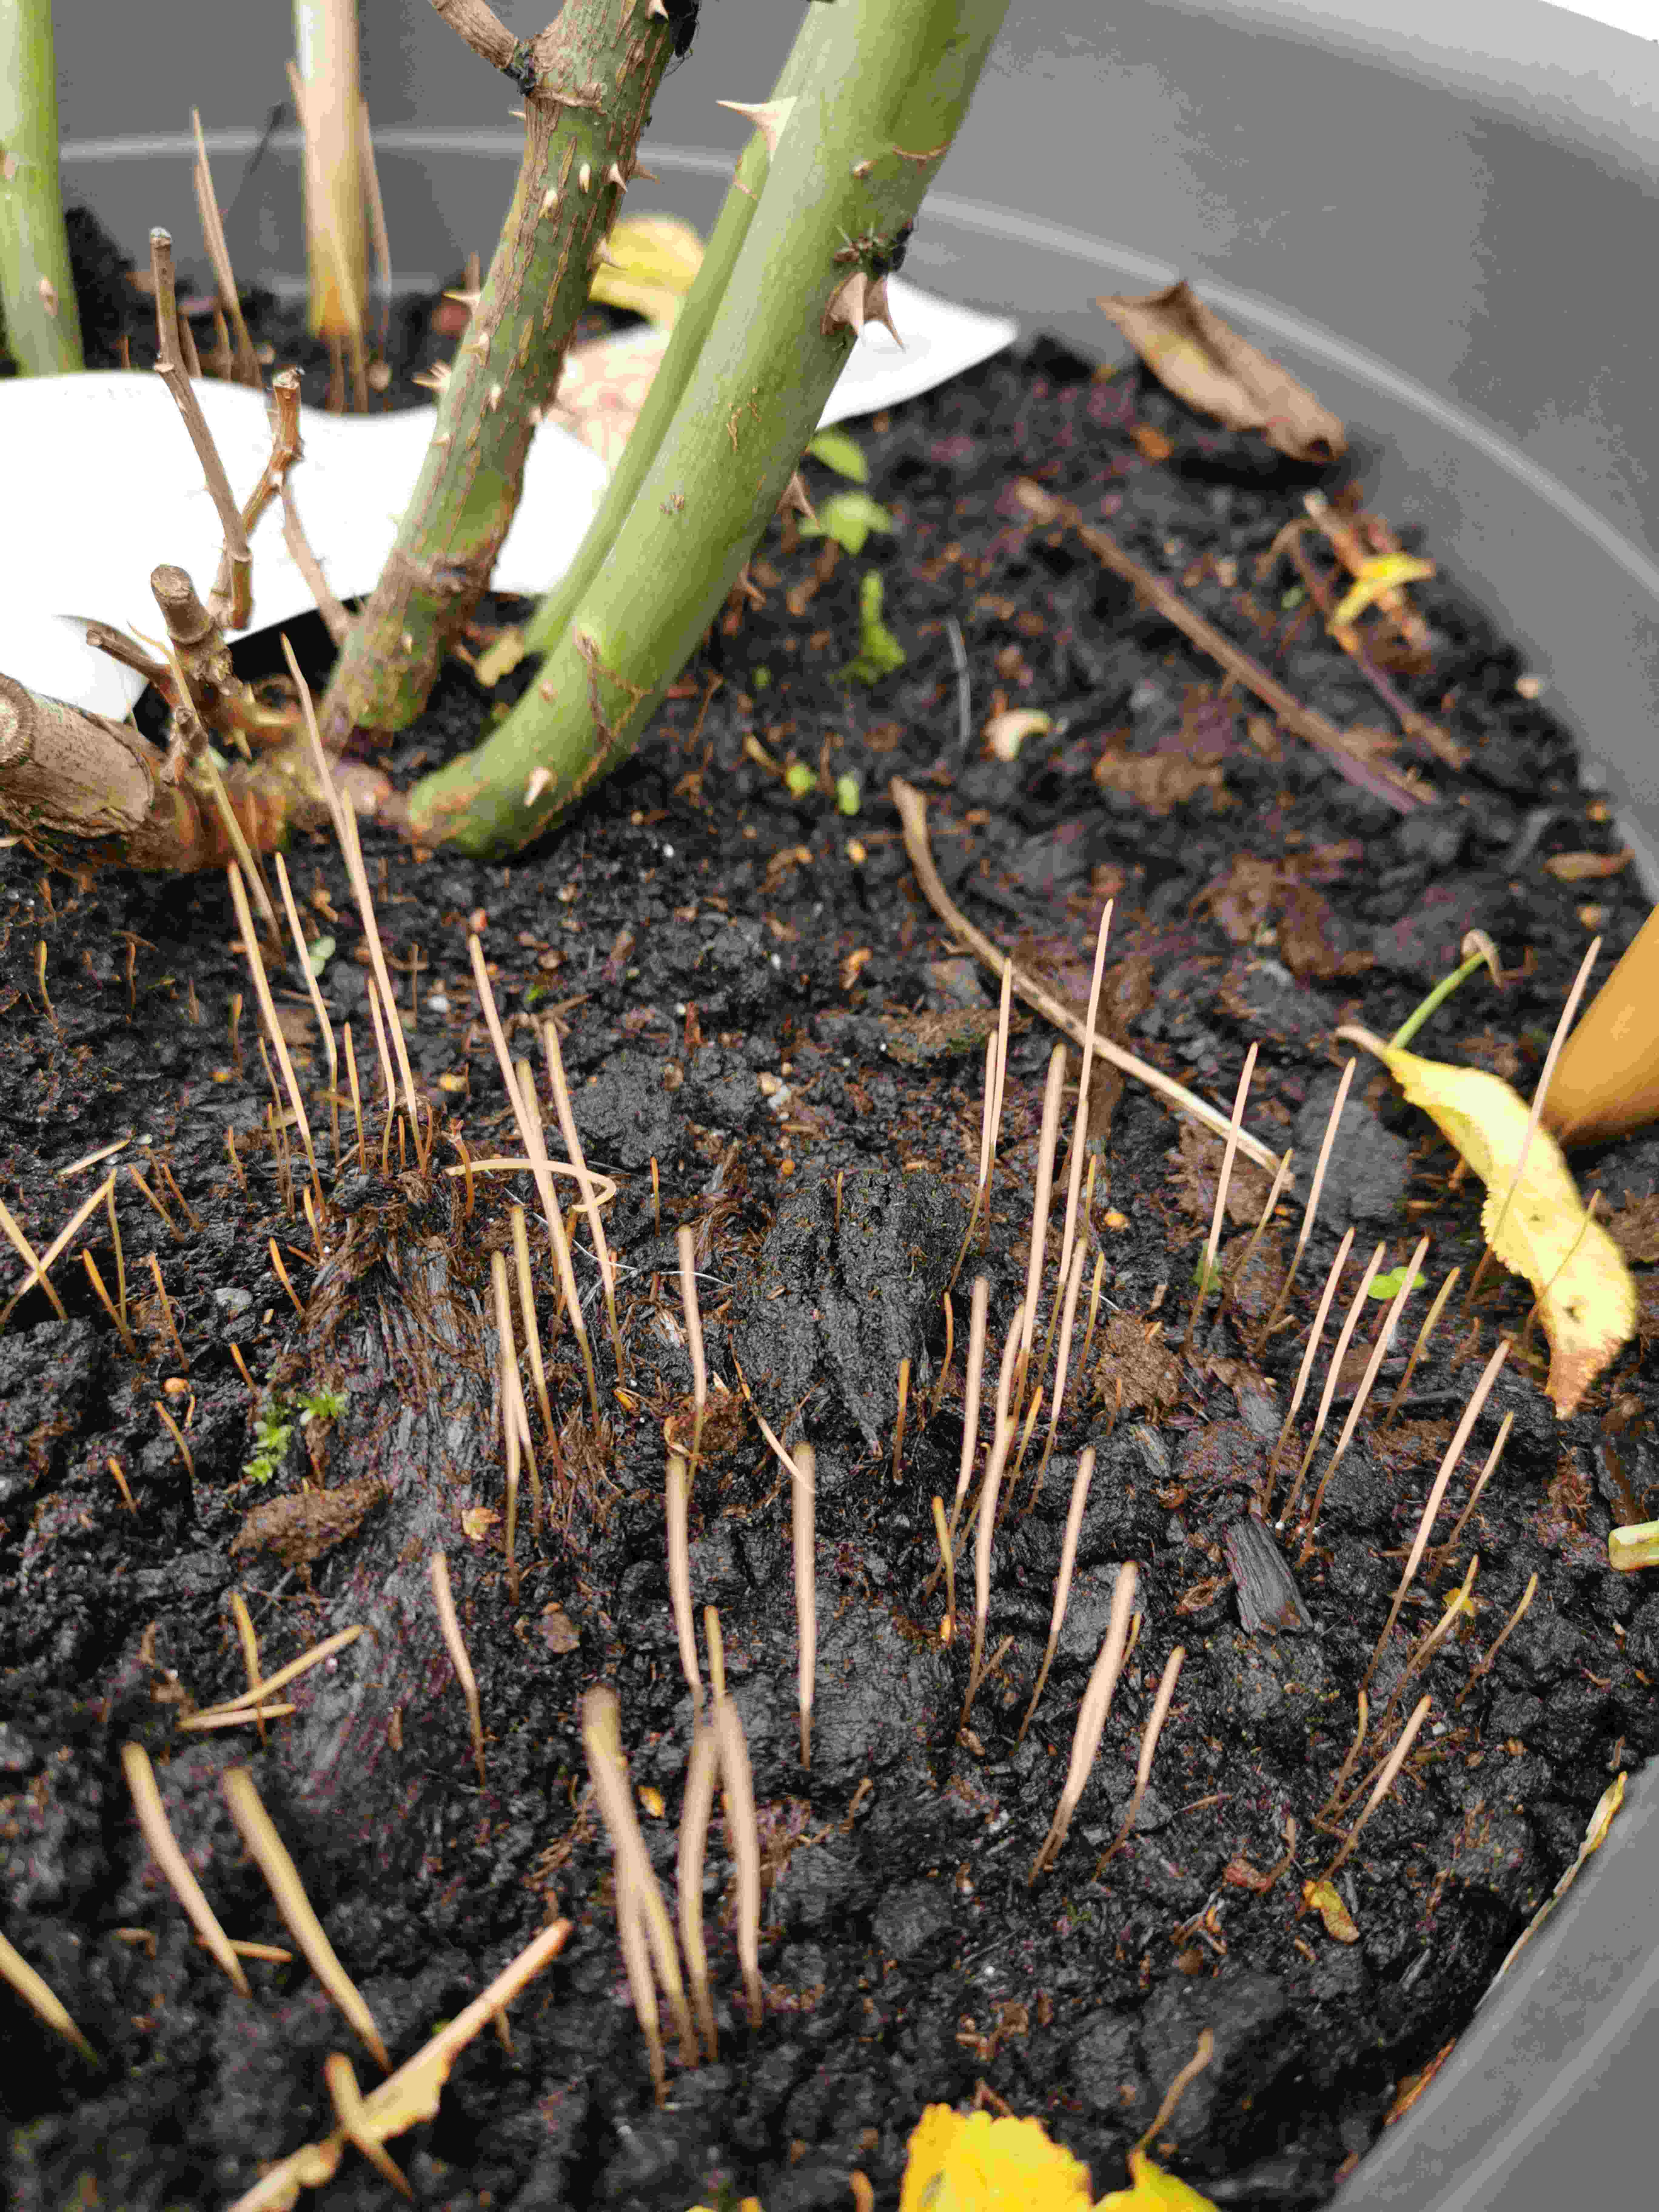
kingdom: Fungi
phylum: Basidiomycota
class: Agaricomycetes
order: Agaricales
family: Typhulaceae
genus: Macrotyphula
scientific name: Macrotyphula phacorrhiza
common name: lang rørkølle
